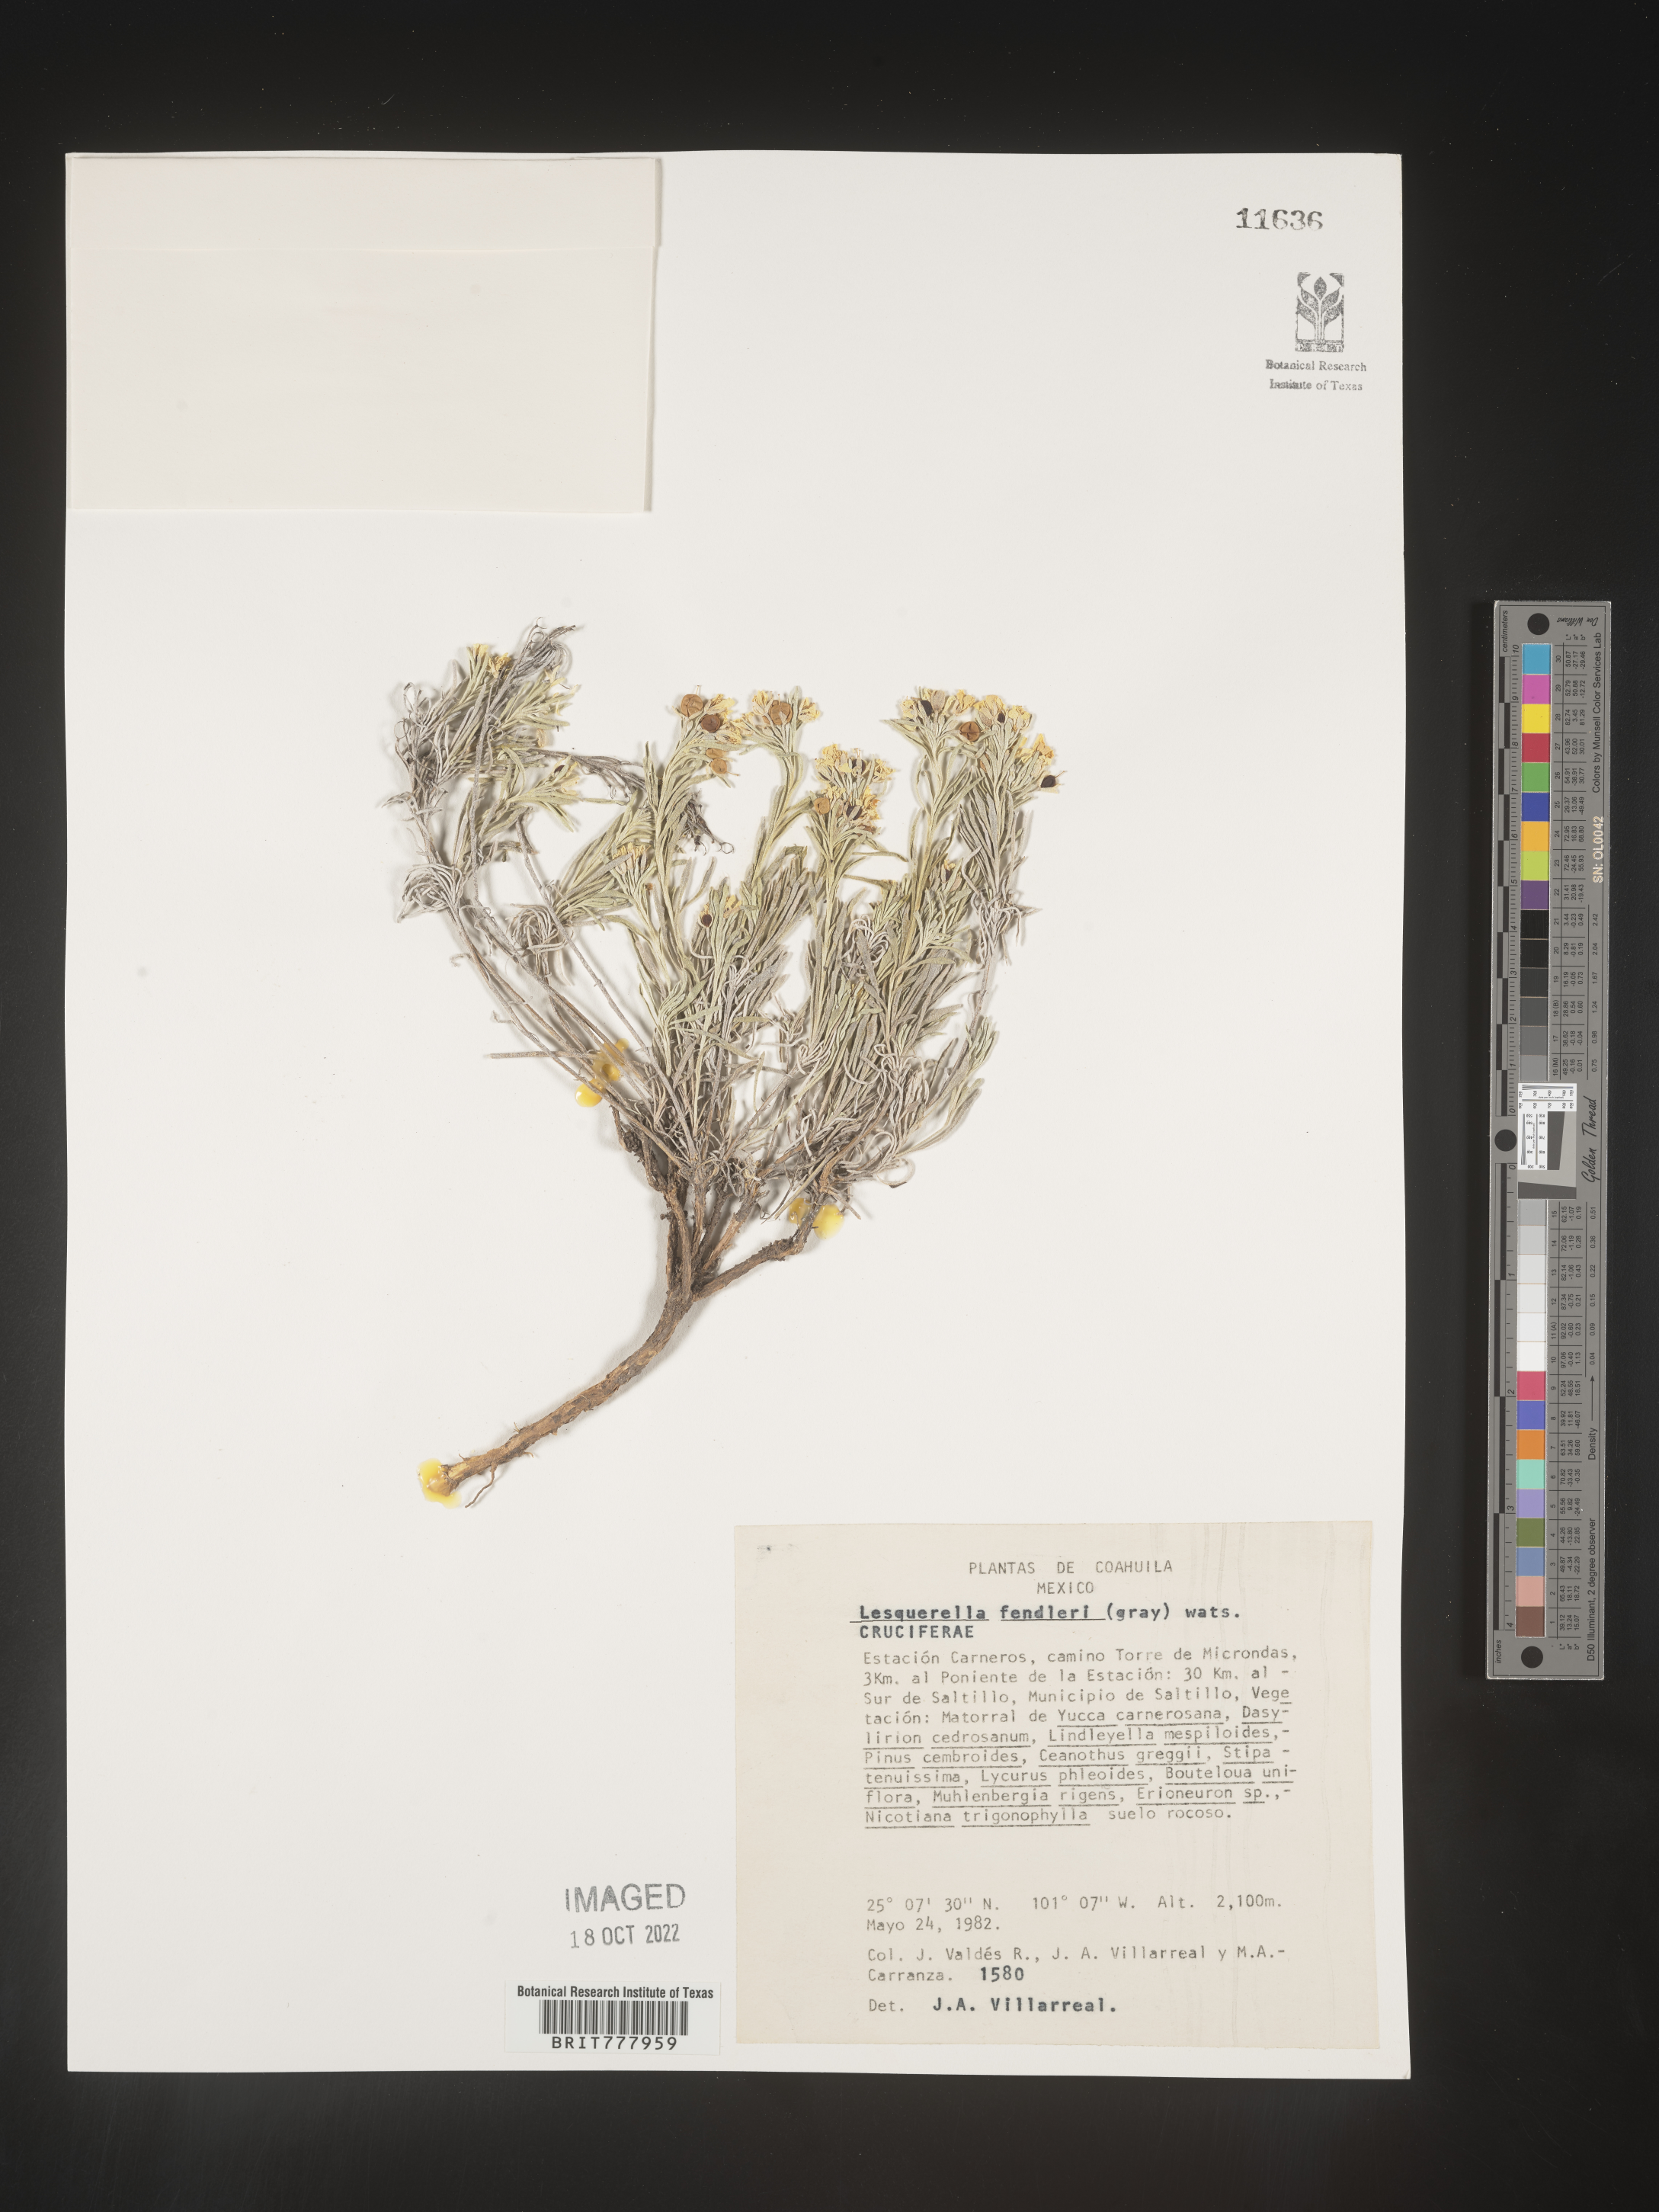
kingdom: Chromista
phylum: Cercozoa
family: Psammonobiotidae
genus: Lesquerella
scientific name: Lesquerella
